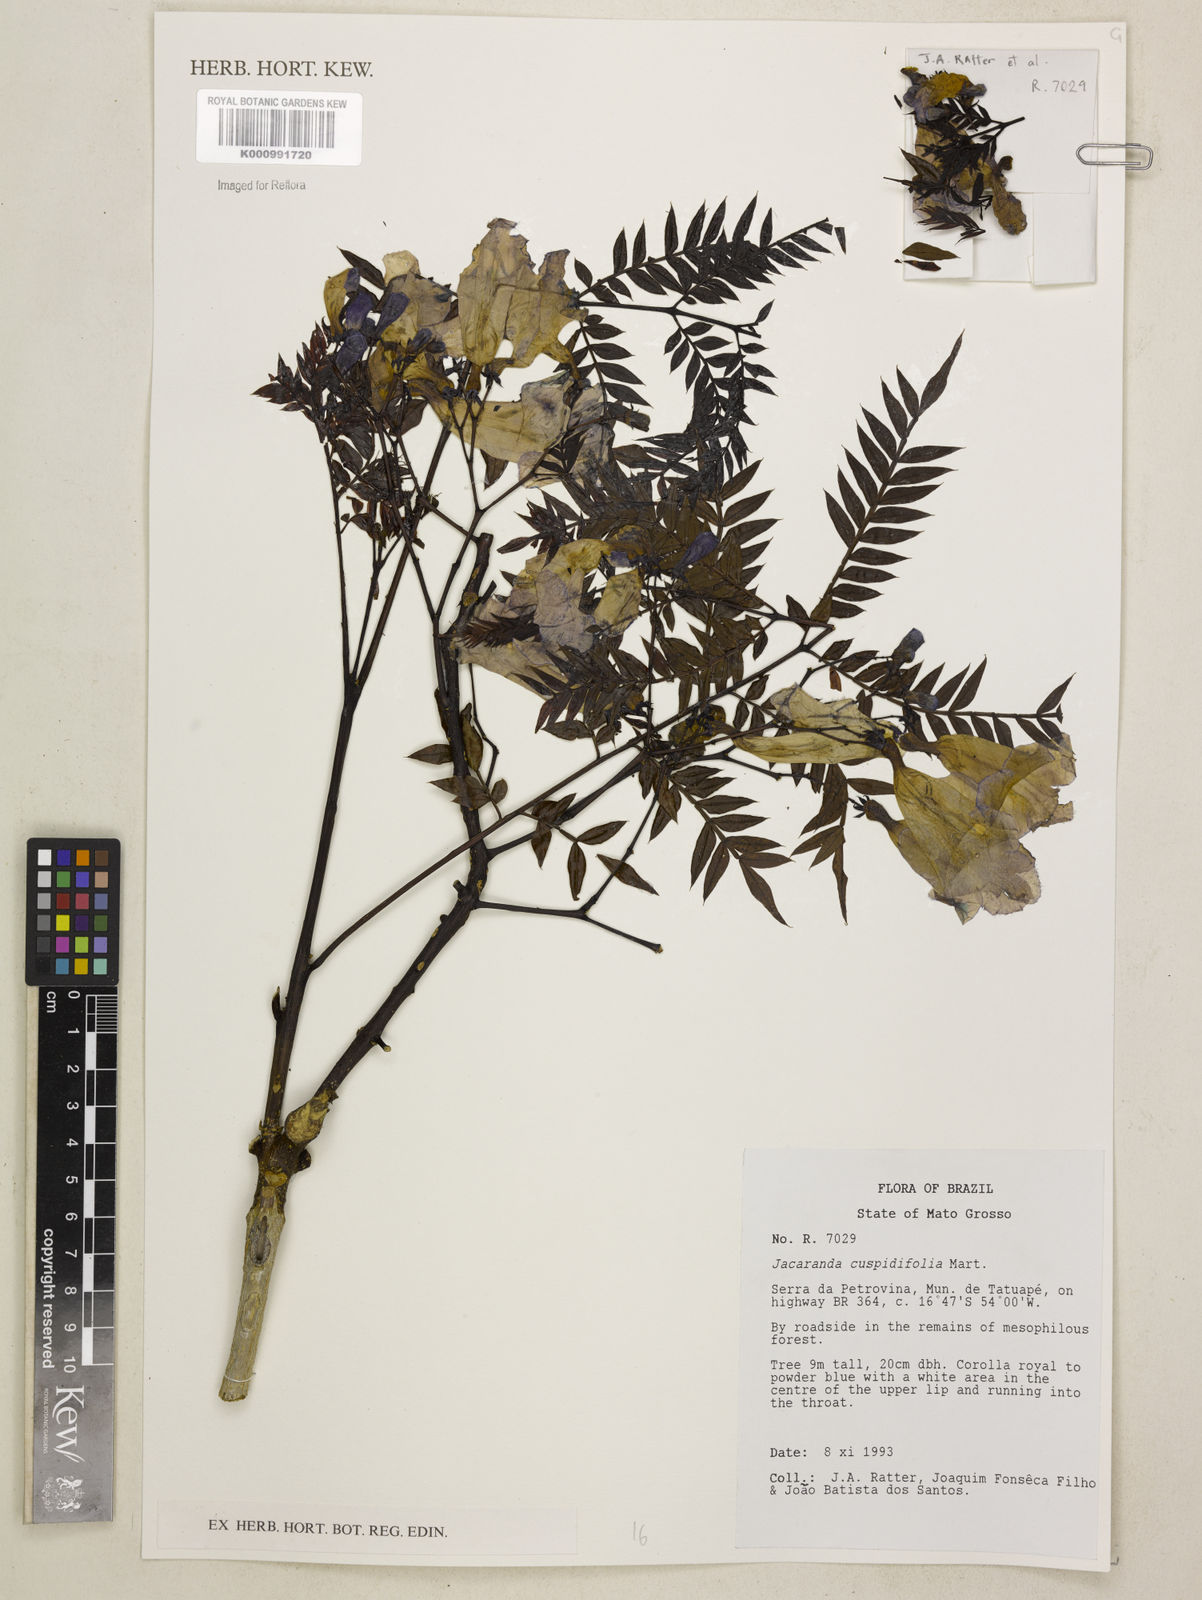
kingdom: Plantae
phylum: Tracheophyta
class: Magnoliopsida
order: Lamiales
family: Bignoniaceae
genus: Jacaranda
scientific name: Jacaranda cuspidifolia
